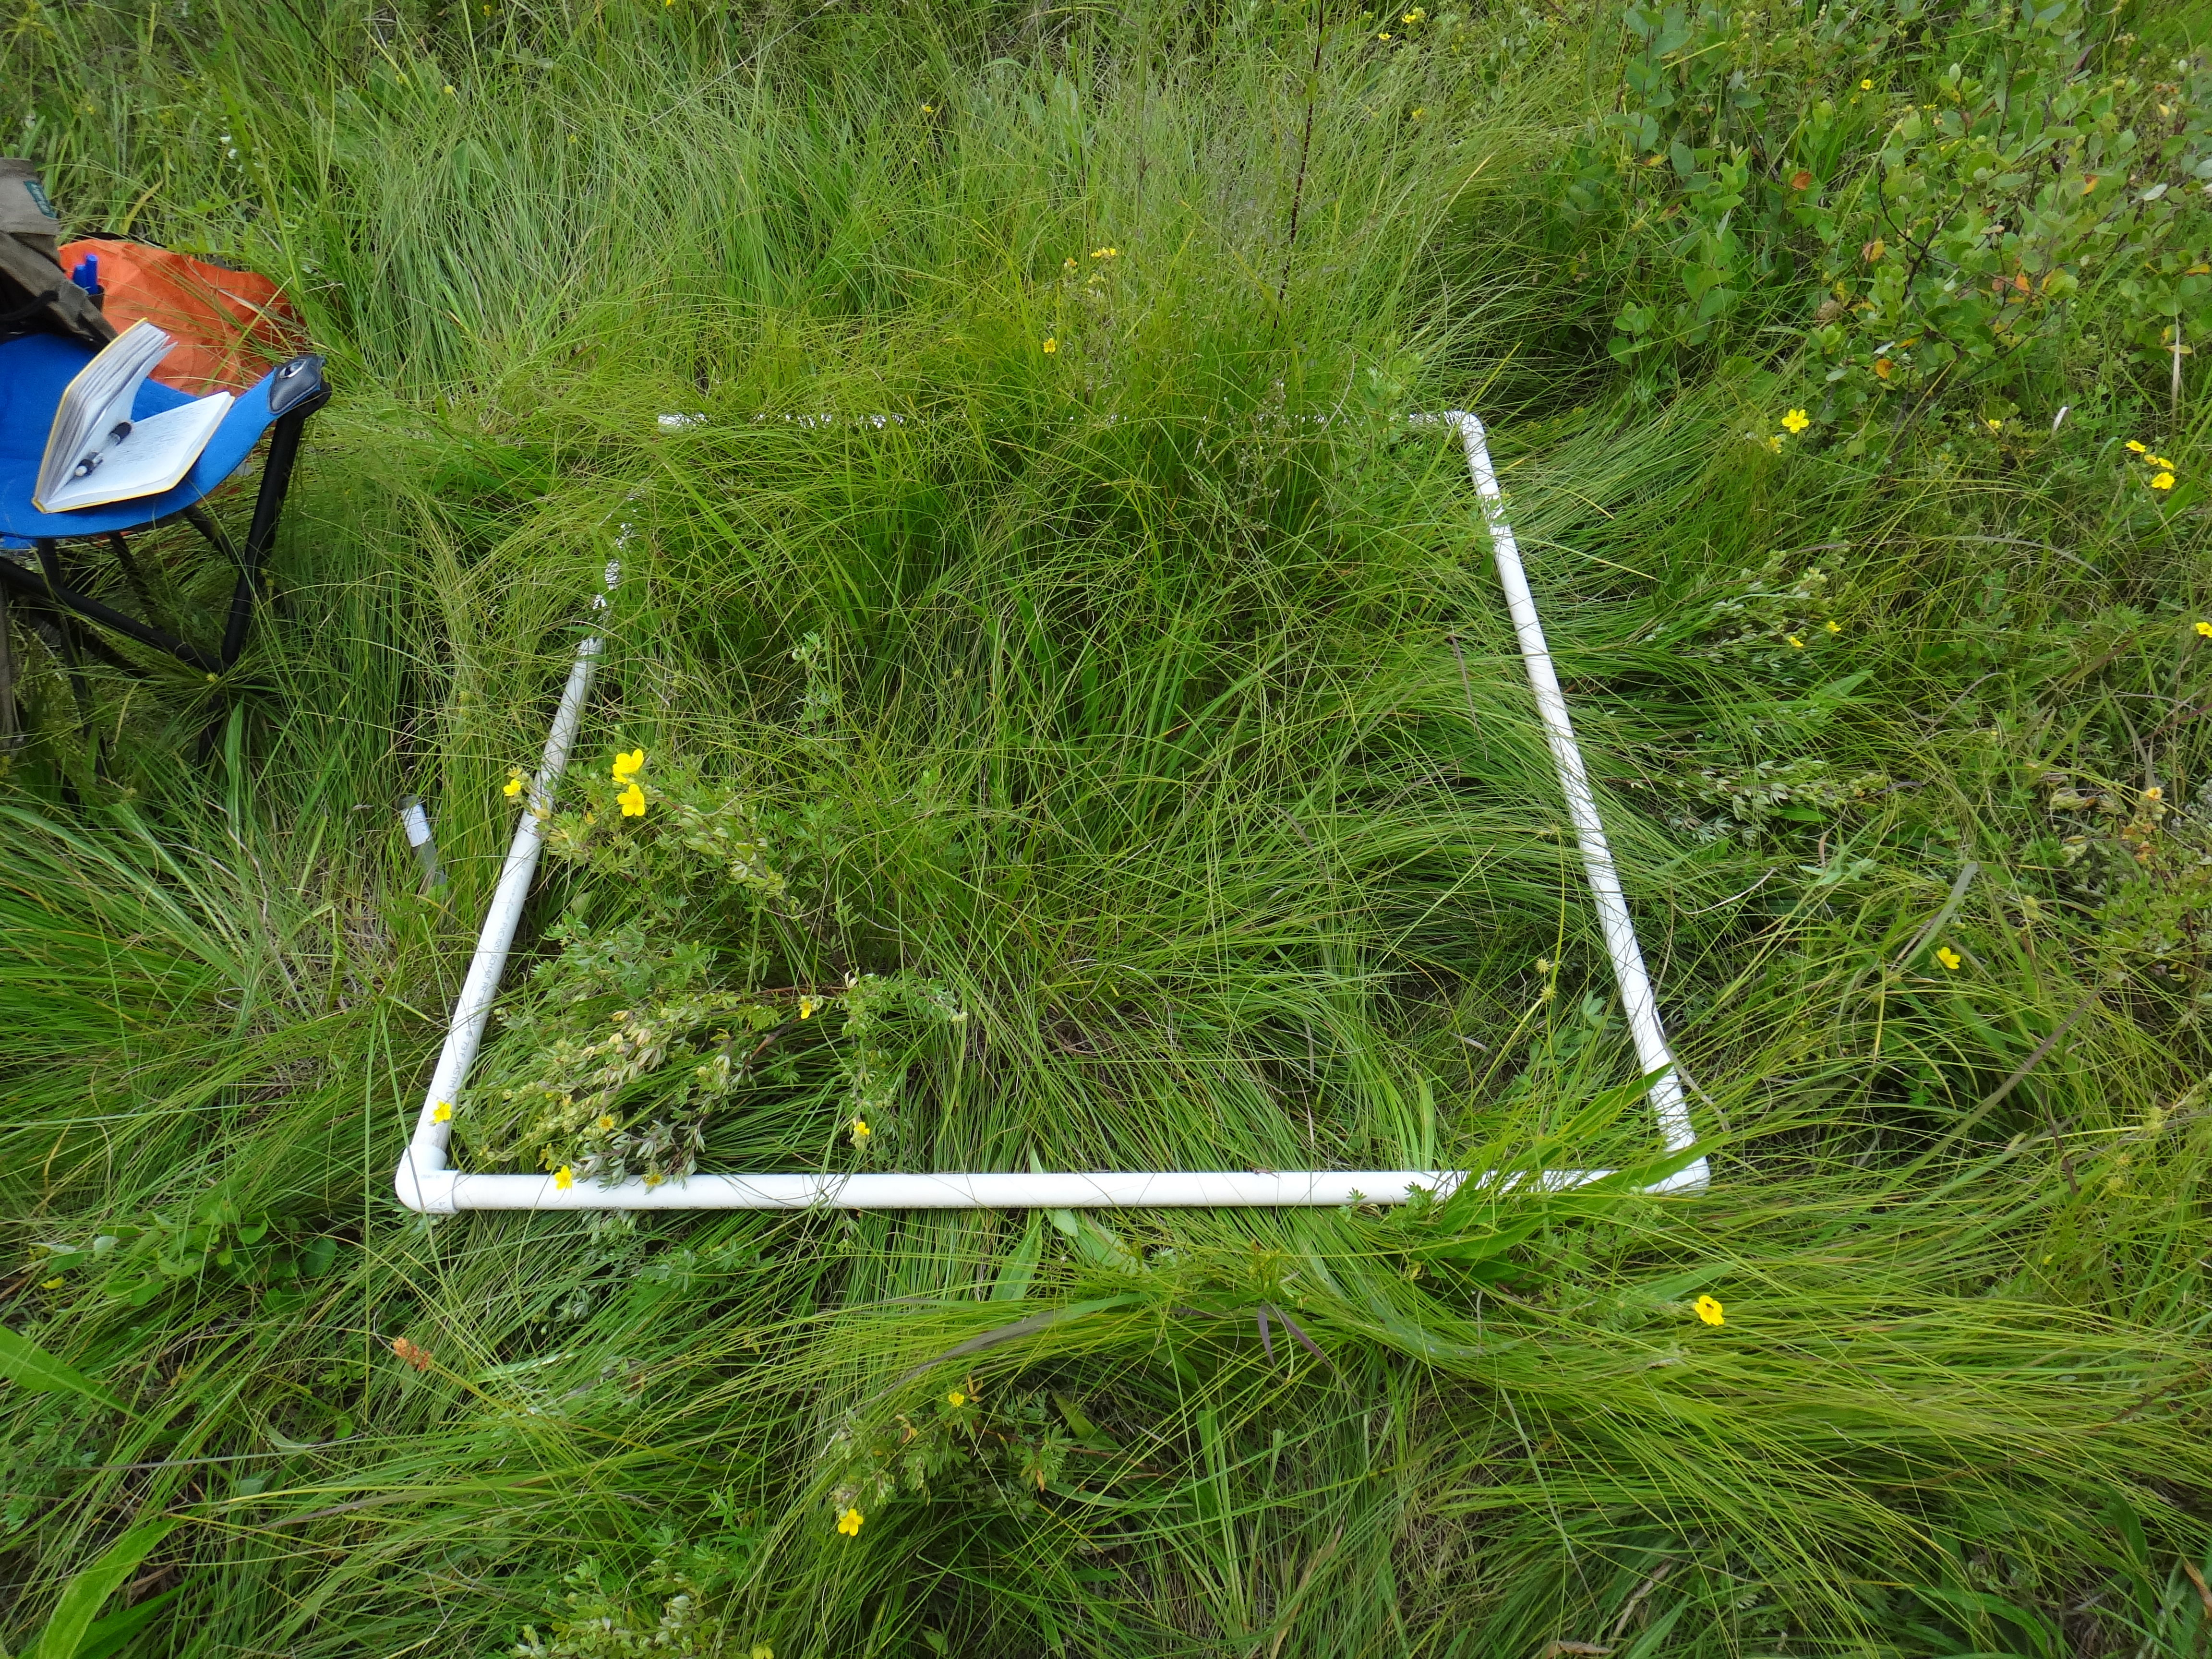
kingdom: Plantae
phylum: Tracheophyta
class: Magnoliopsida
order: Santalales
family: Comandraceae
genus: Comandra
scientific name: Comandra umbellata
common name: Bastard toadflax
